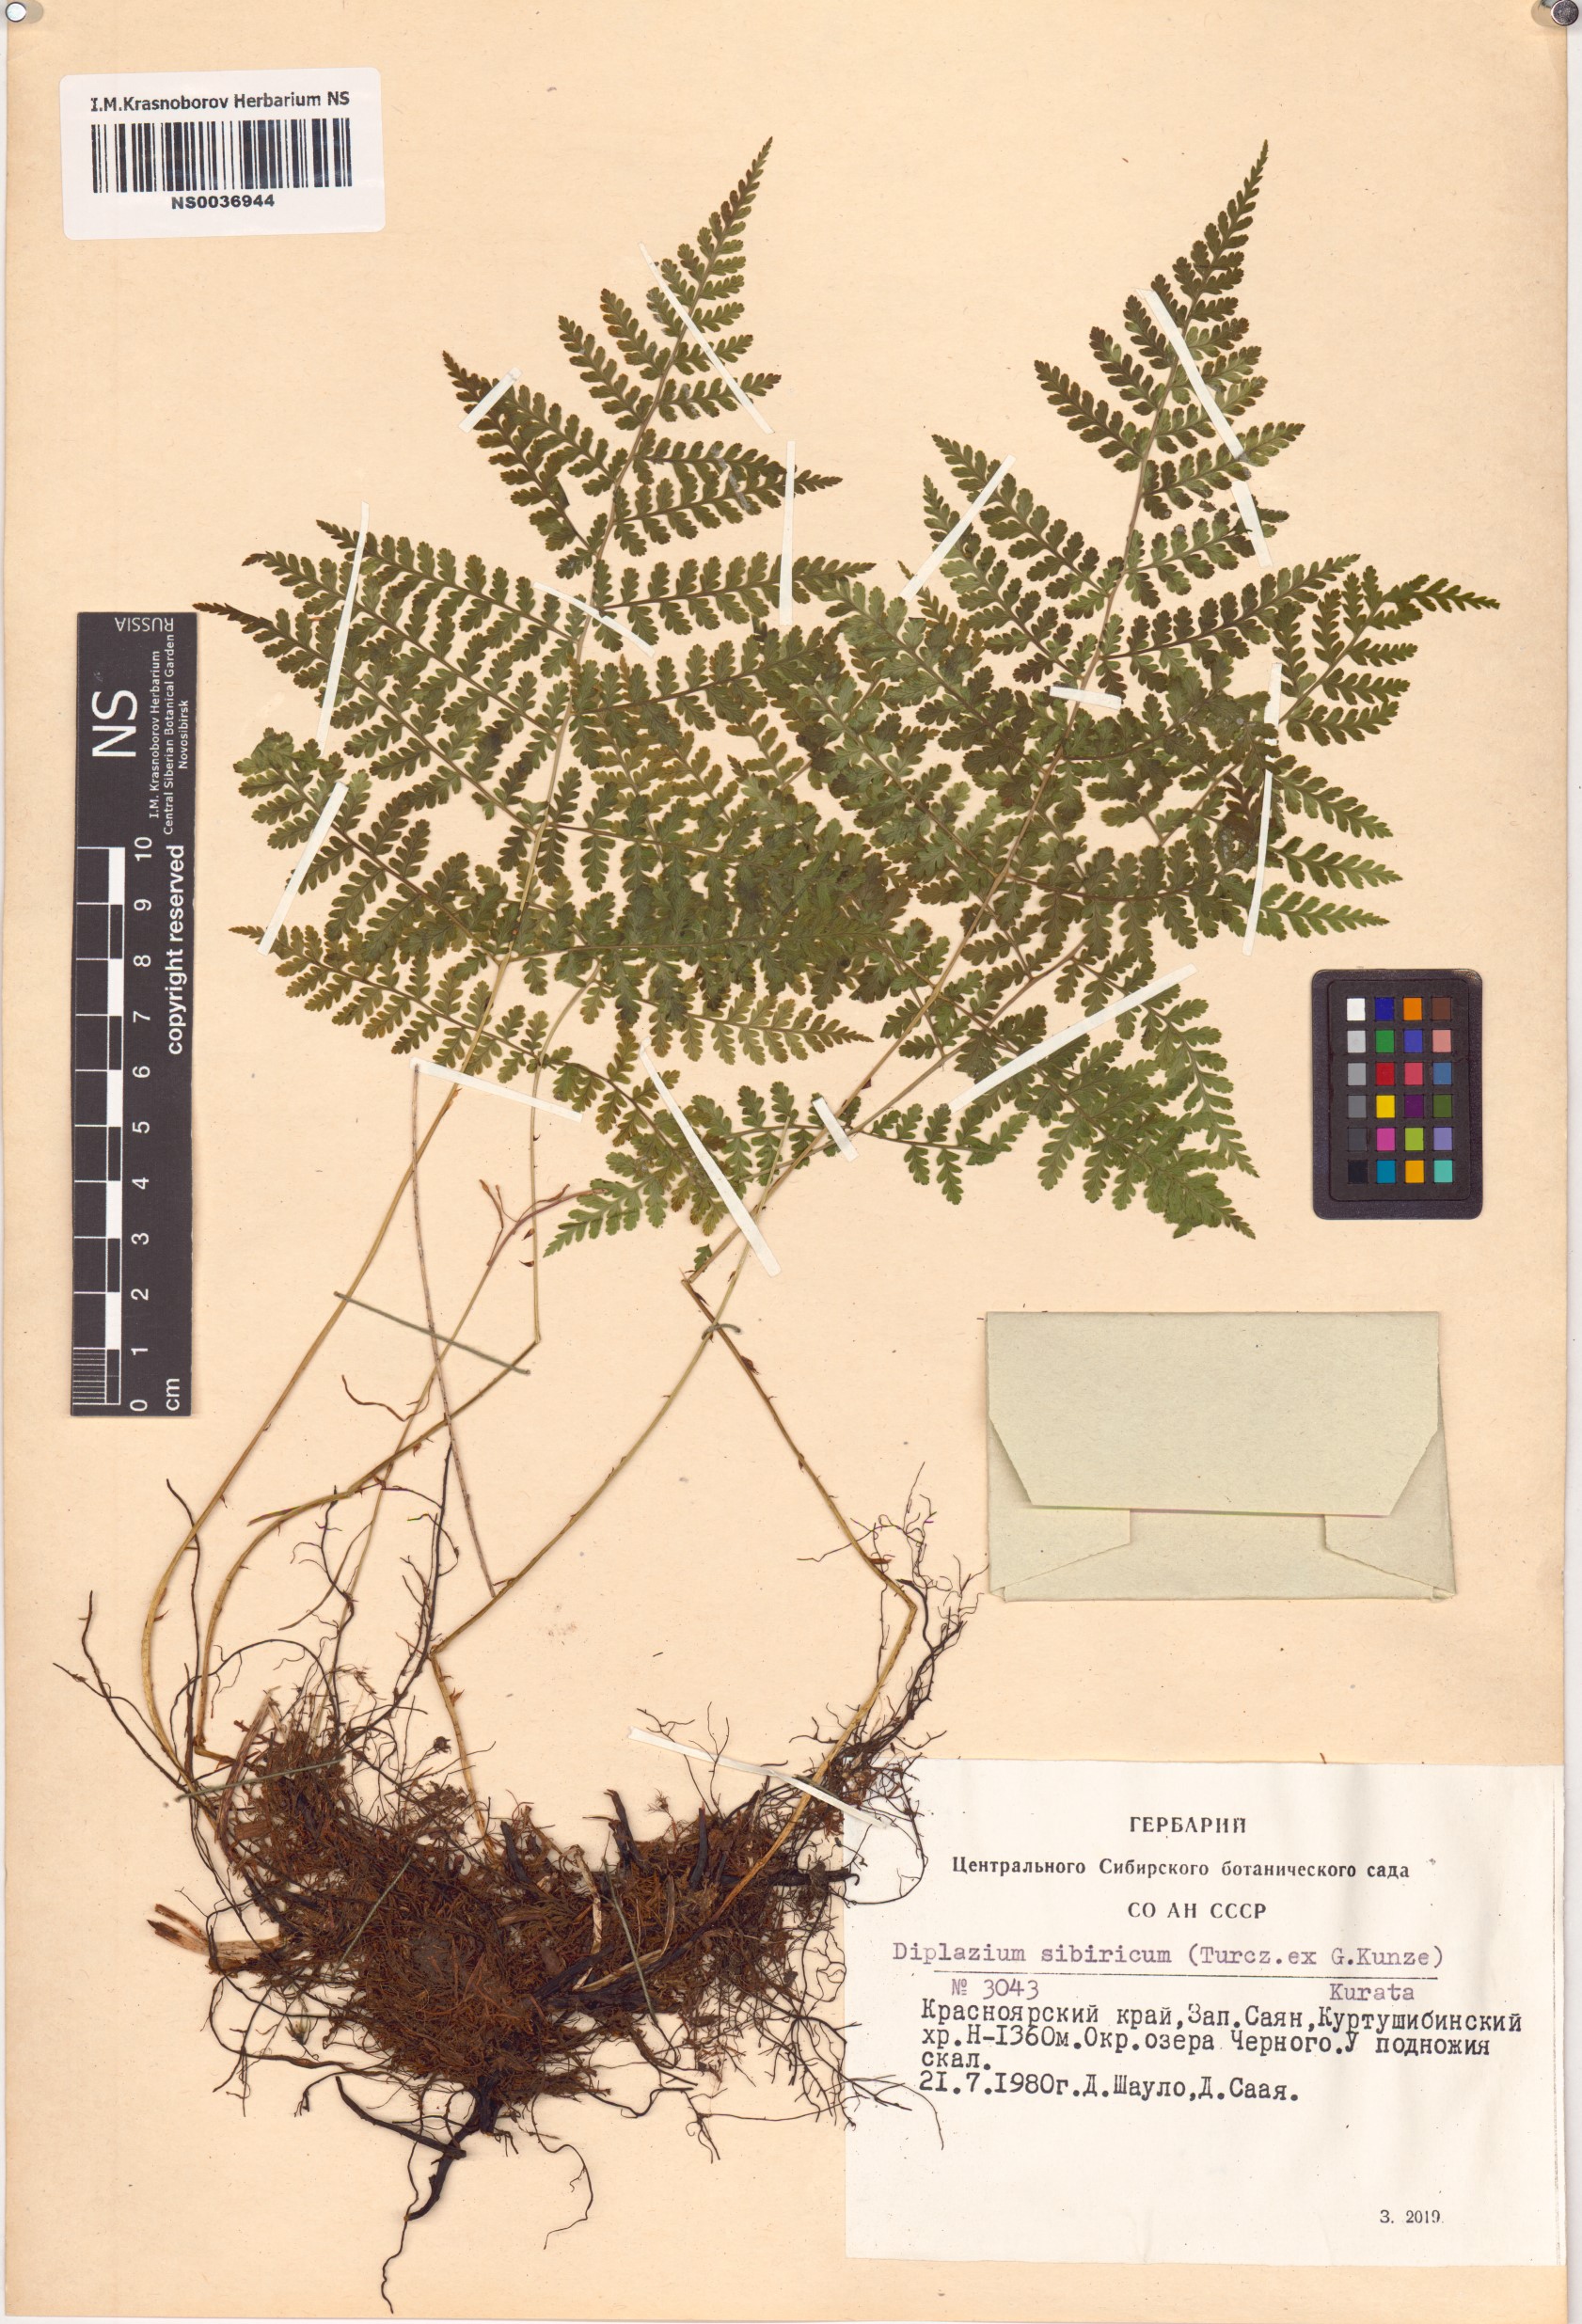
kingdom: Plantae
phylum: Tracheophyta
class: Polypodiopsida
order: Polypodiales
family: Athyriaceae
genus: Diplazium
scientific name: Diplazium sibiricum
